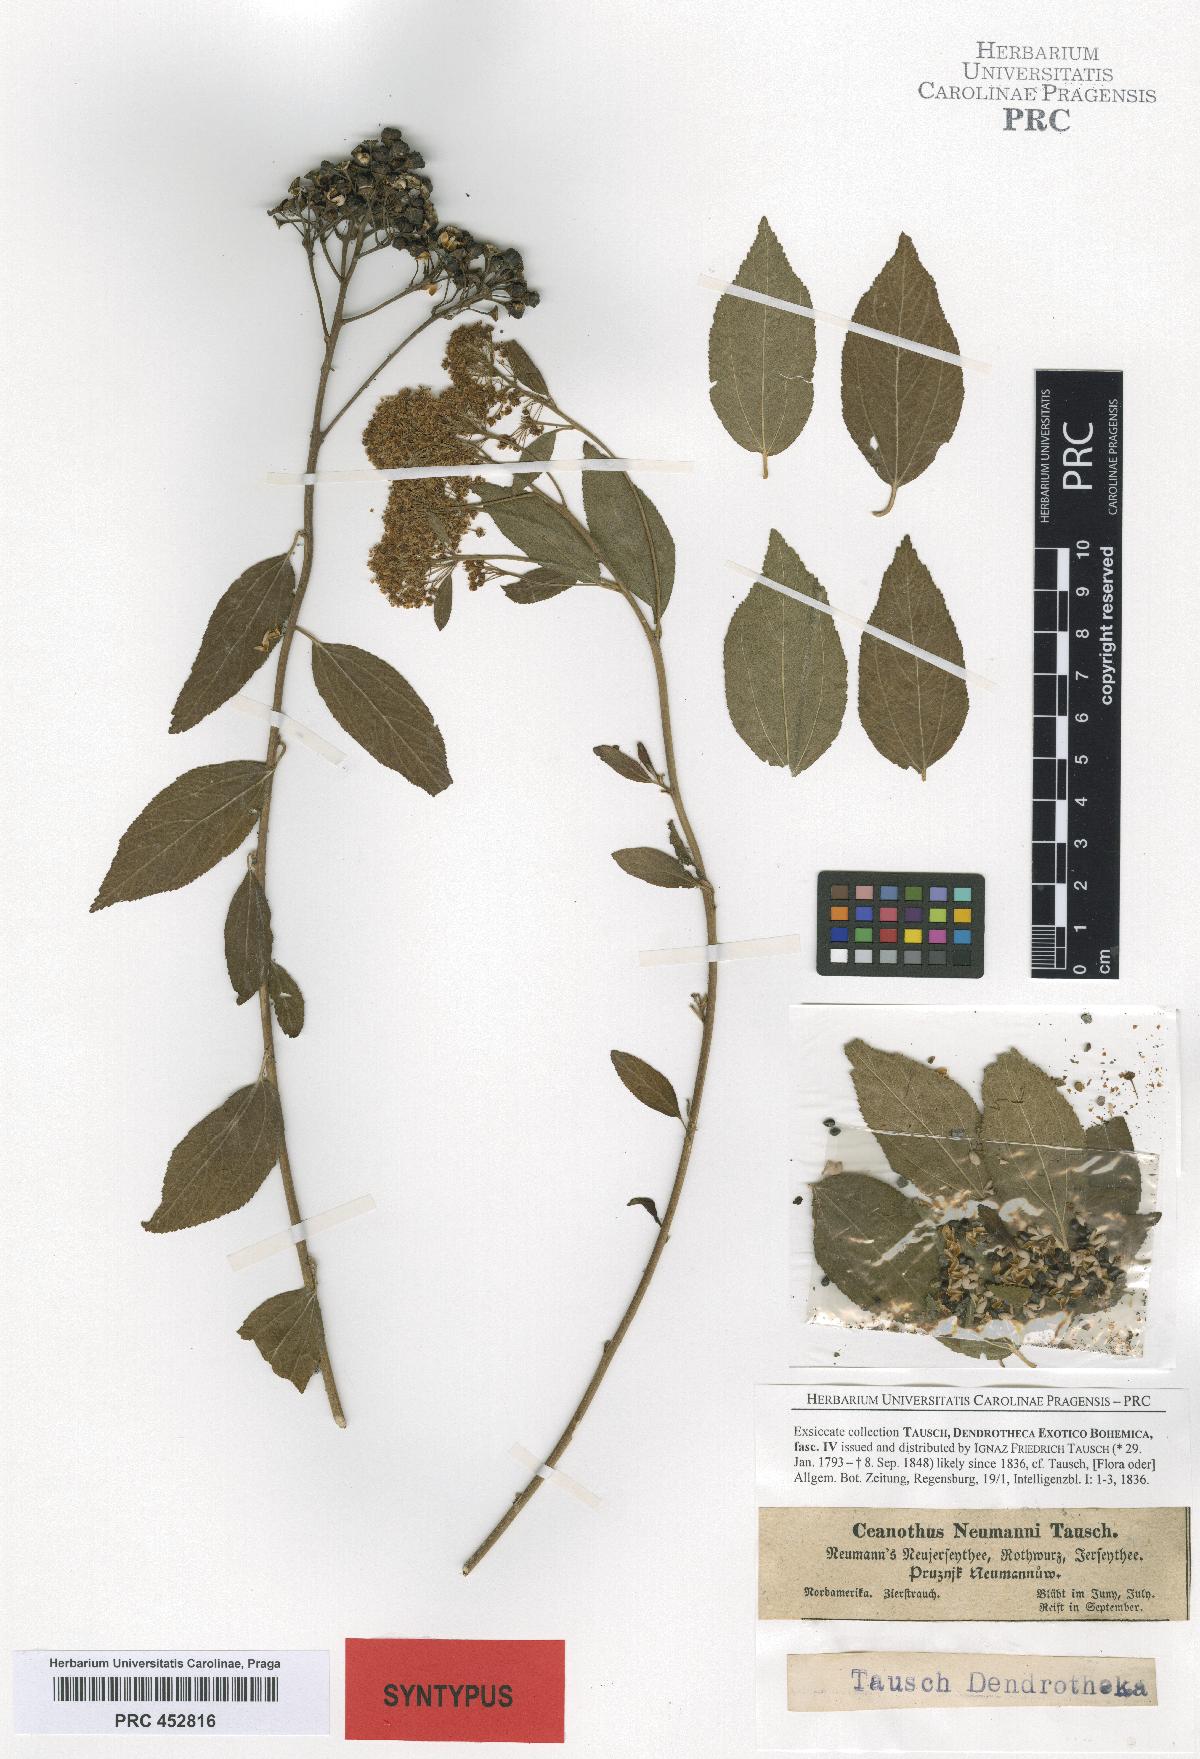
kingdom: Plantae
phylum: Tracheophyta
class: Magnoliopsida
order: Rosales
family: Rhamnaceae
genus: Ceanothus
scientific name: Ceanothus neumannii
